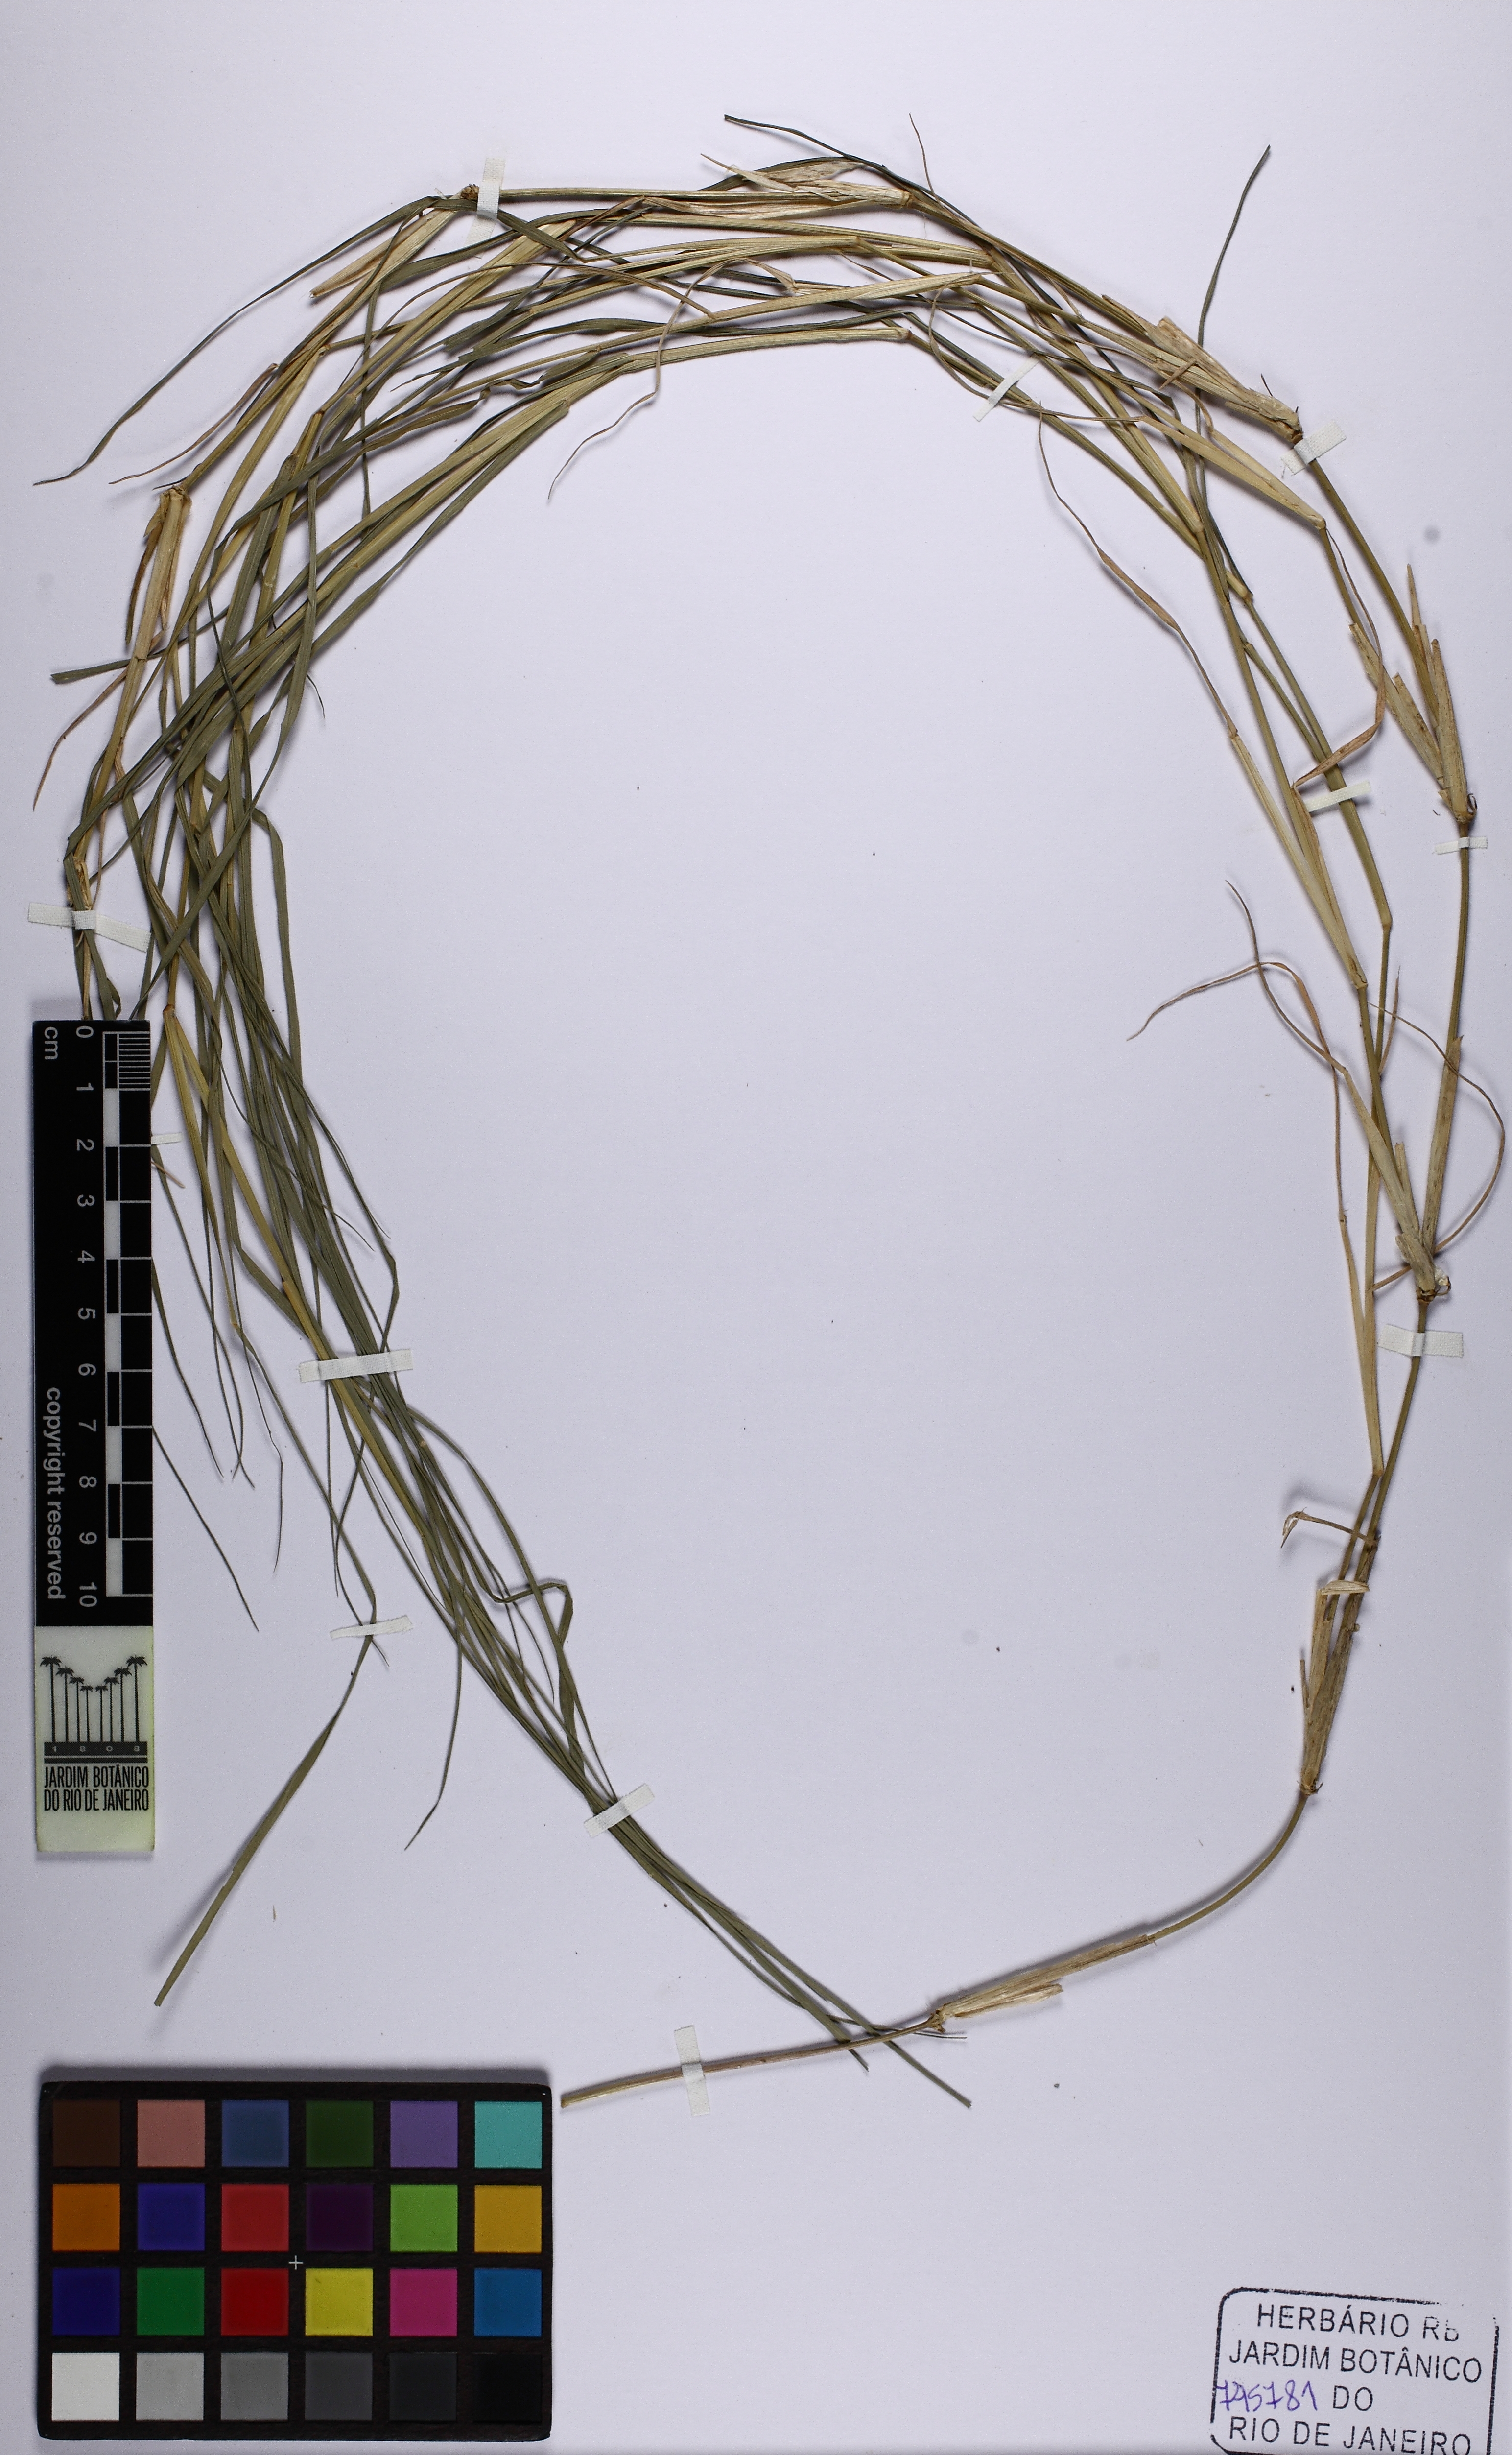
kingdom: Plantae
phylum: Tracheophyta
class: Liliopsida
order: Poales
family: Poaceae
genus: Cynodon
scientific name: Cynodon
